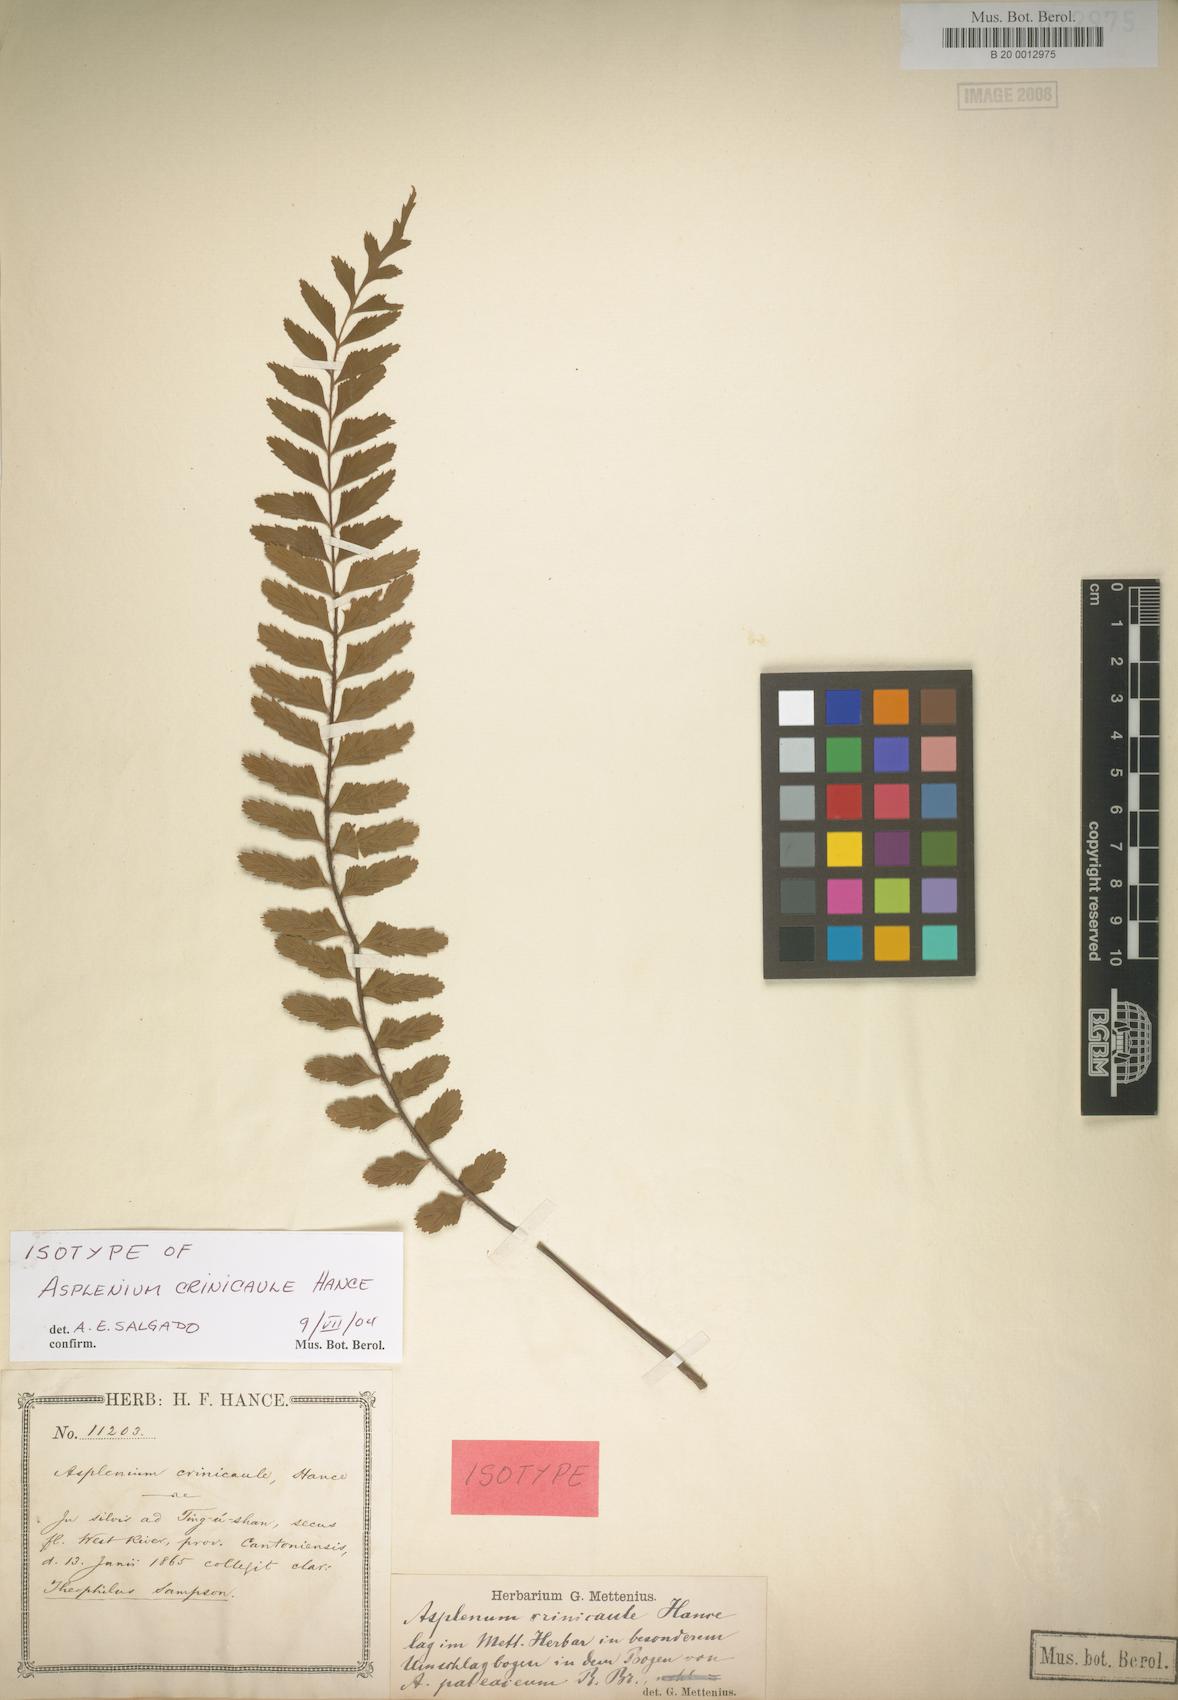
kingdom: Plantae
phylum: Tracheophyta
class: Polypodiopsida
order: Polypodiales
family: Aspleniaceae
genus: Asplenium
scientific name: Asplenium crinicaule
